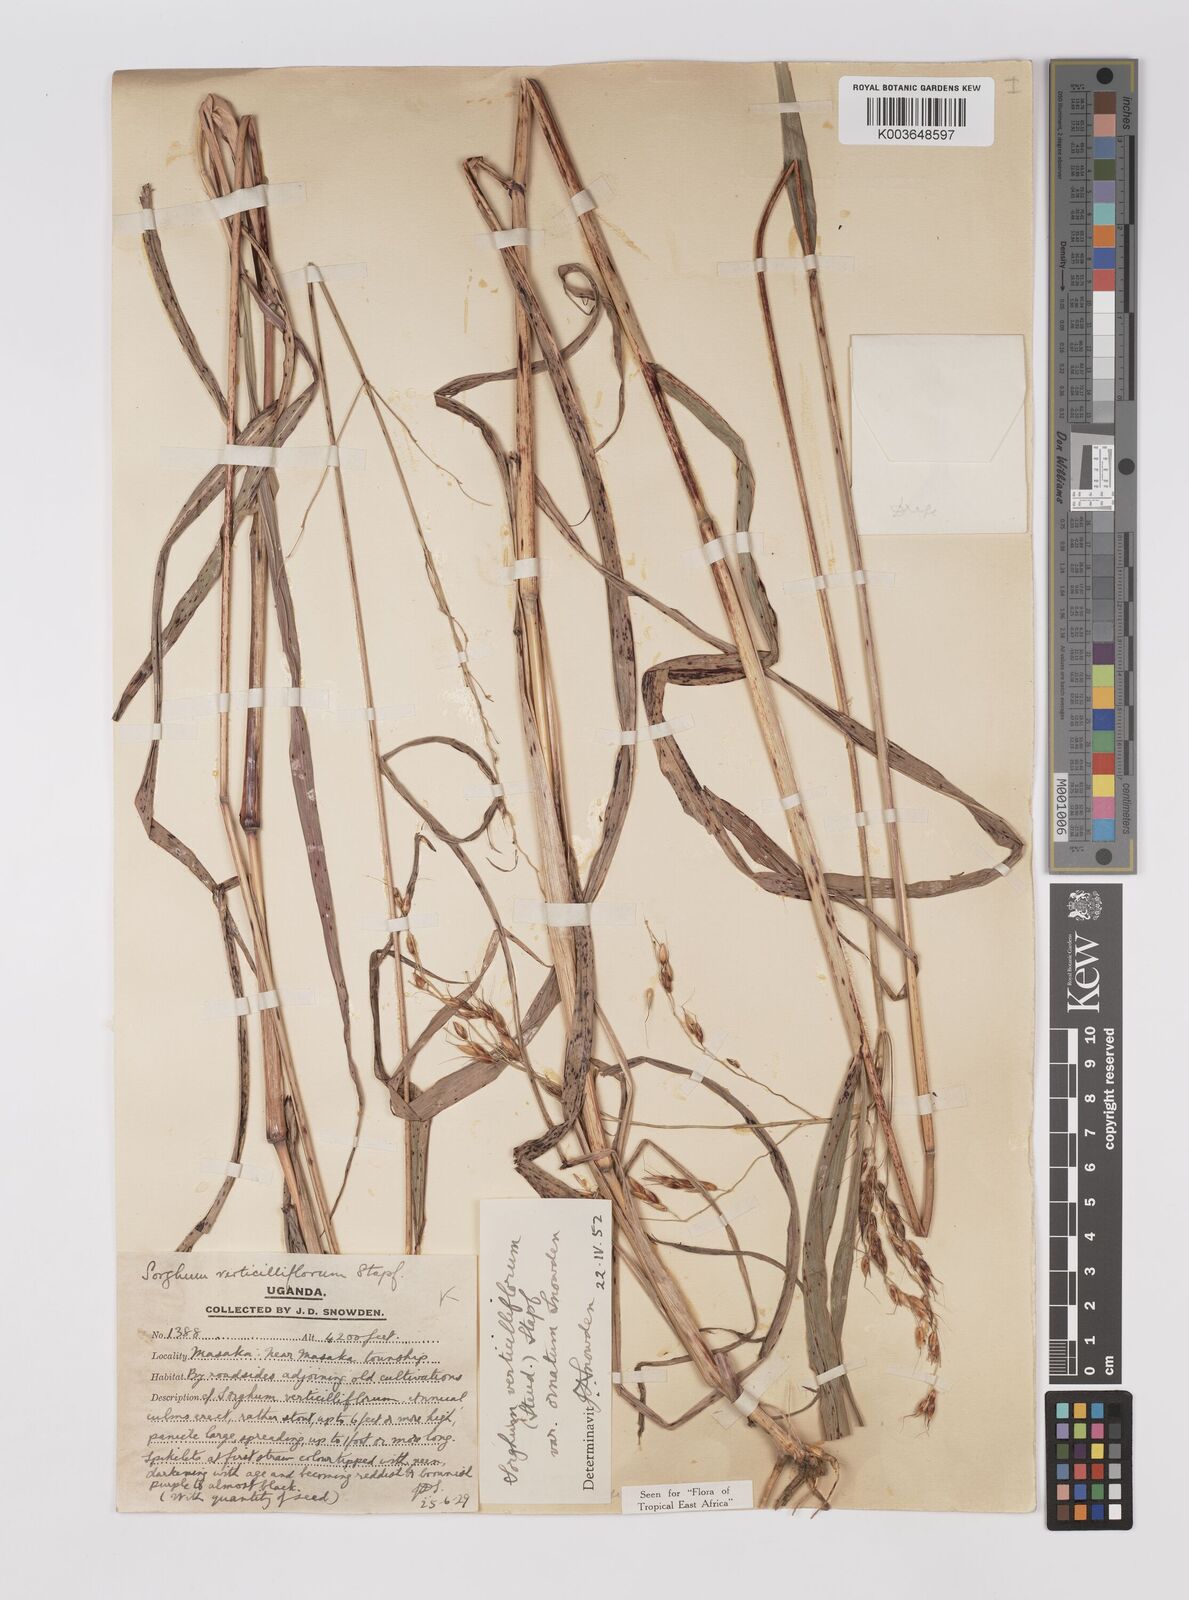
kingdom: Plantae
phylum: Tracheophyta
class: Liliopsida
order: Poales
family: Poaceae
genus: Sorghum
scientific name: Sorghum arundinaceum
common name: Sorghum
